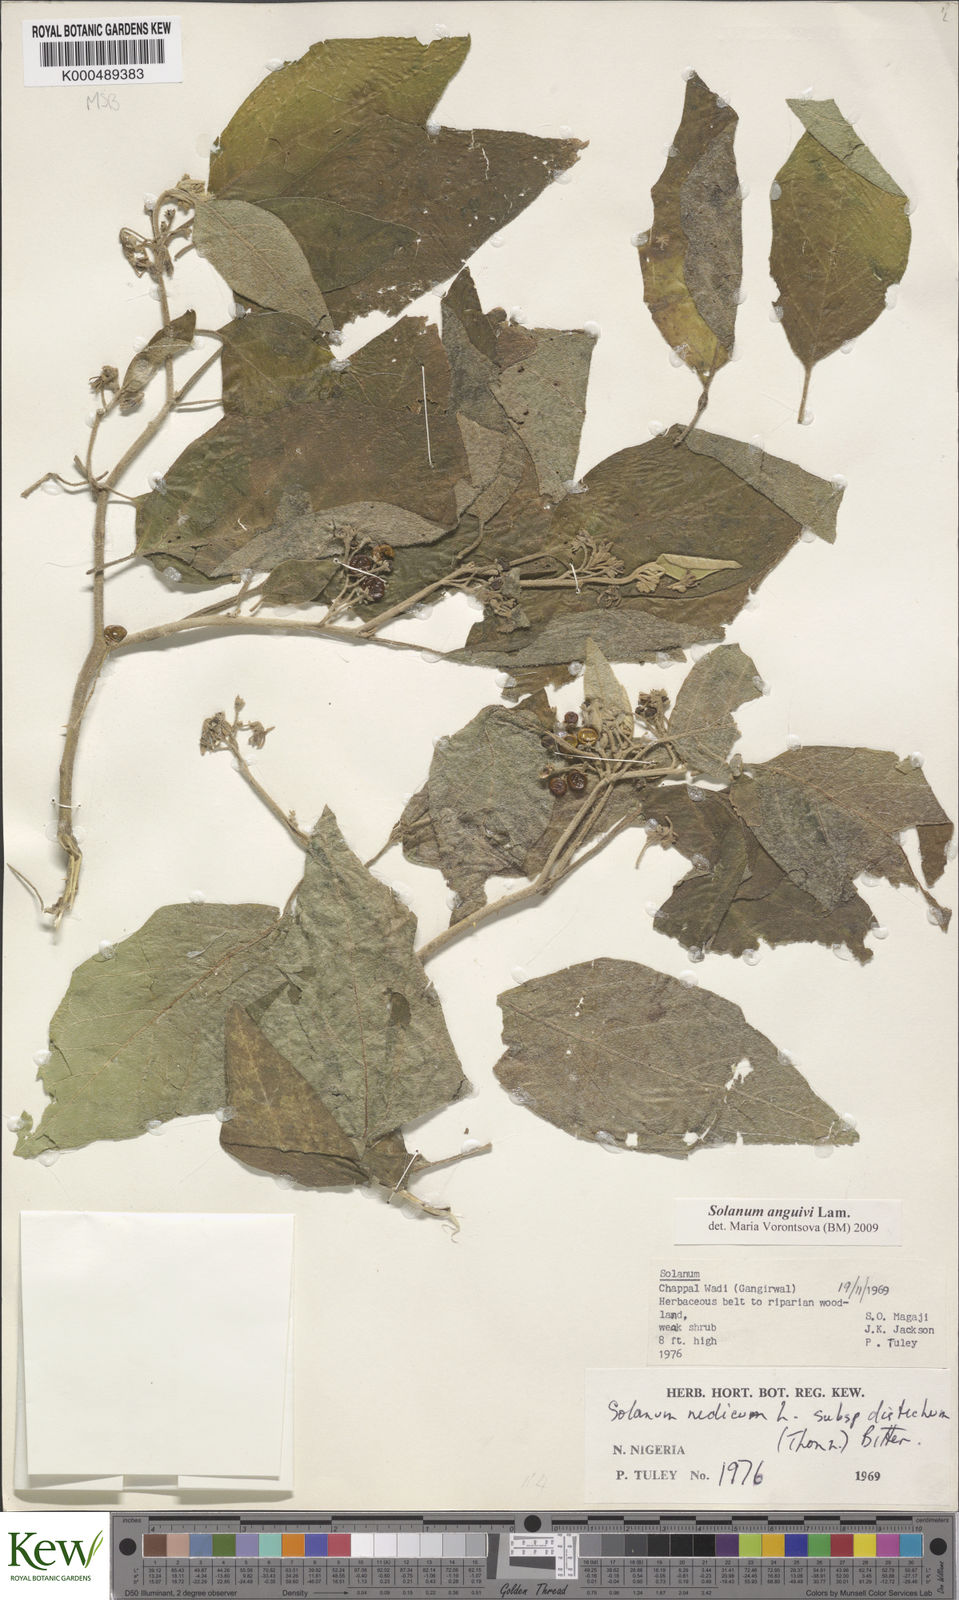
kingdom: Plantae
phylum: Tracheophyta
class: Magnoliopsida
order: Solanales
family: Solanaceae
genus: Solanum
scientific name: Solanum anguivi
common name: Forest bitterberry
